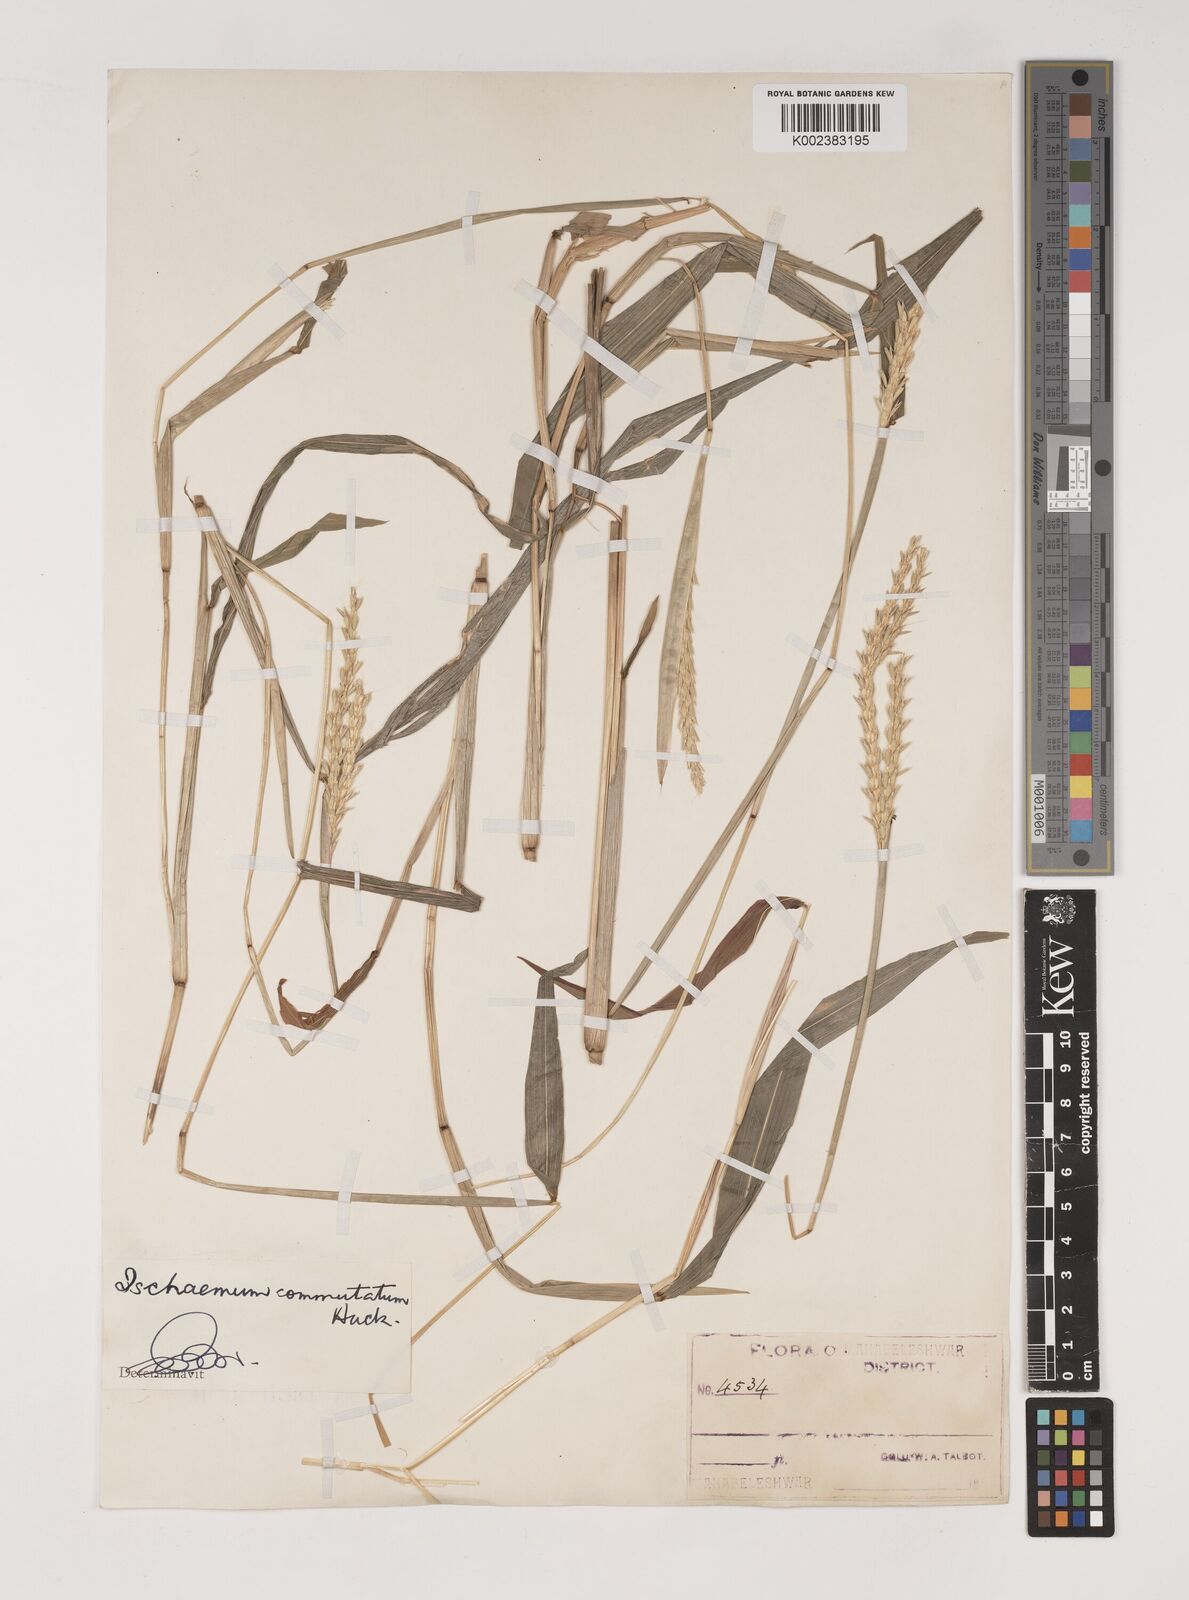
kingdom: Plantae
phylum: Tracheophyta
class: Liliopsida
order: Poales
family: Poaceae
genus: Ischaemum
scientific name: Ischaemum commutatum
